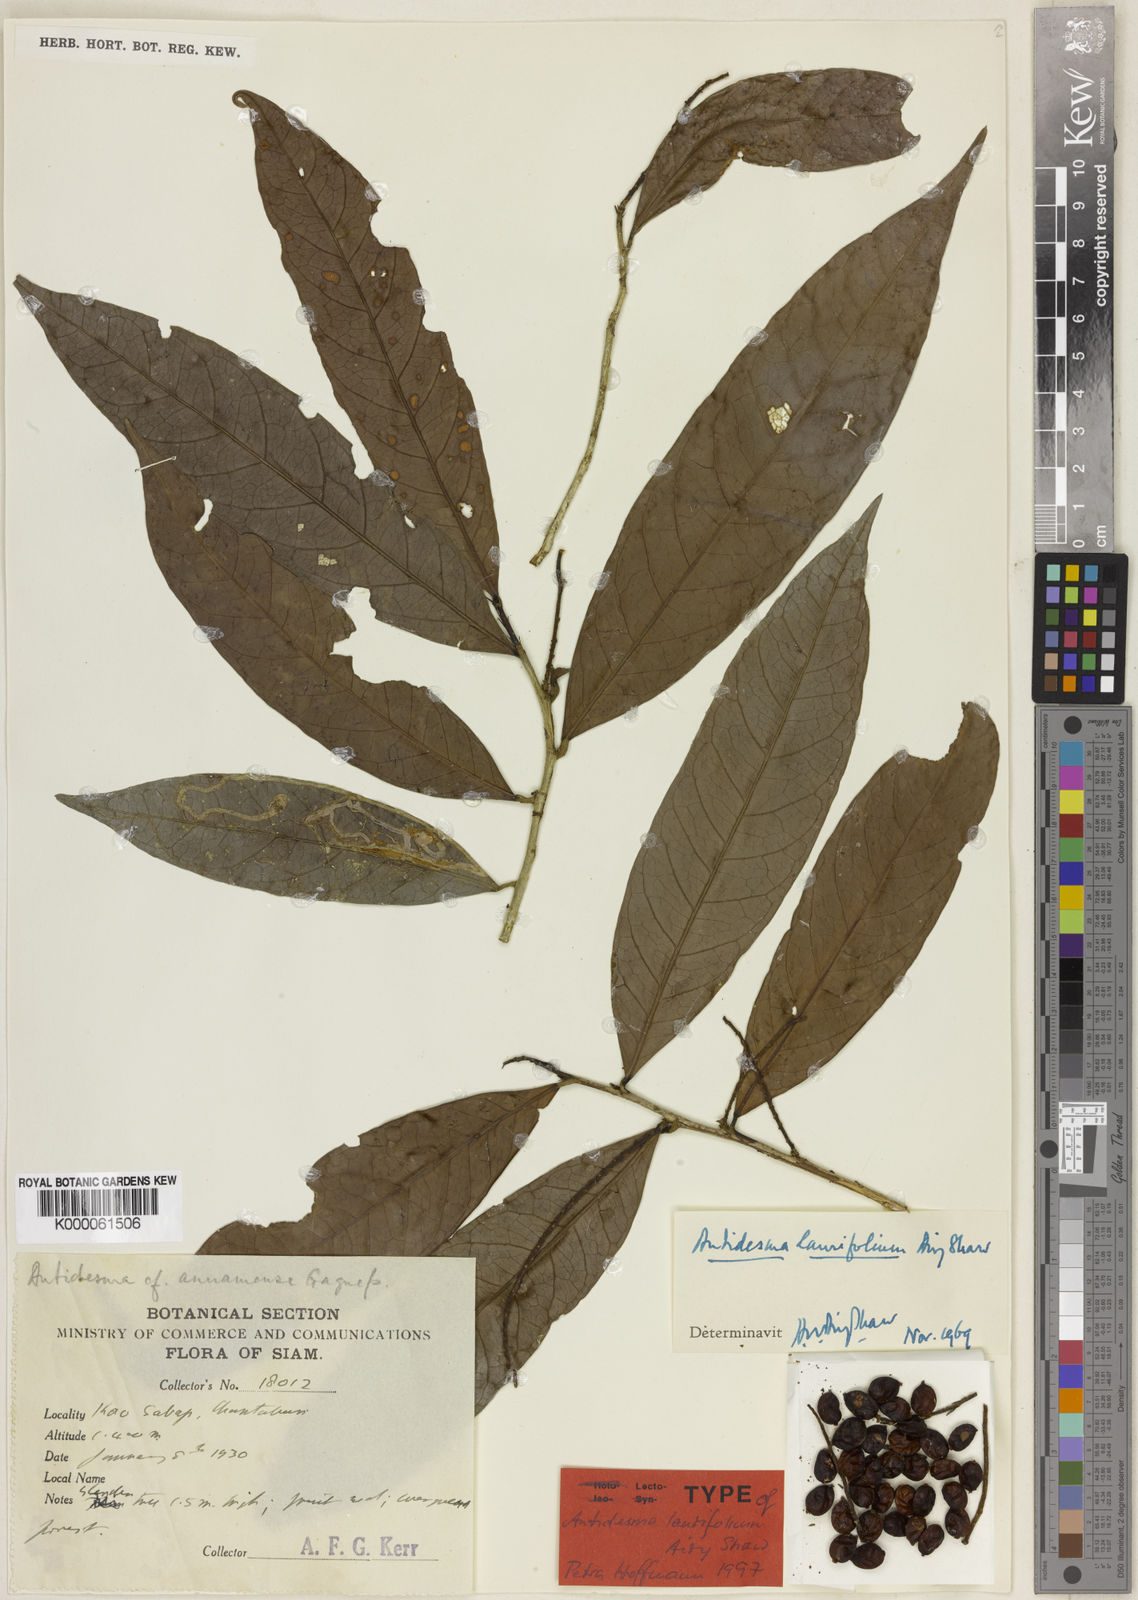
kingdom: Plantae
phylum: Tracheophyta
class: Magnoliopsida
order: Malpighiales
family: Phyllanthaceae
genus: Antidesma
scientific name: Antidesma laurifolium
